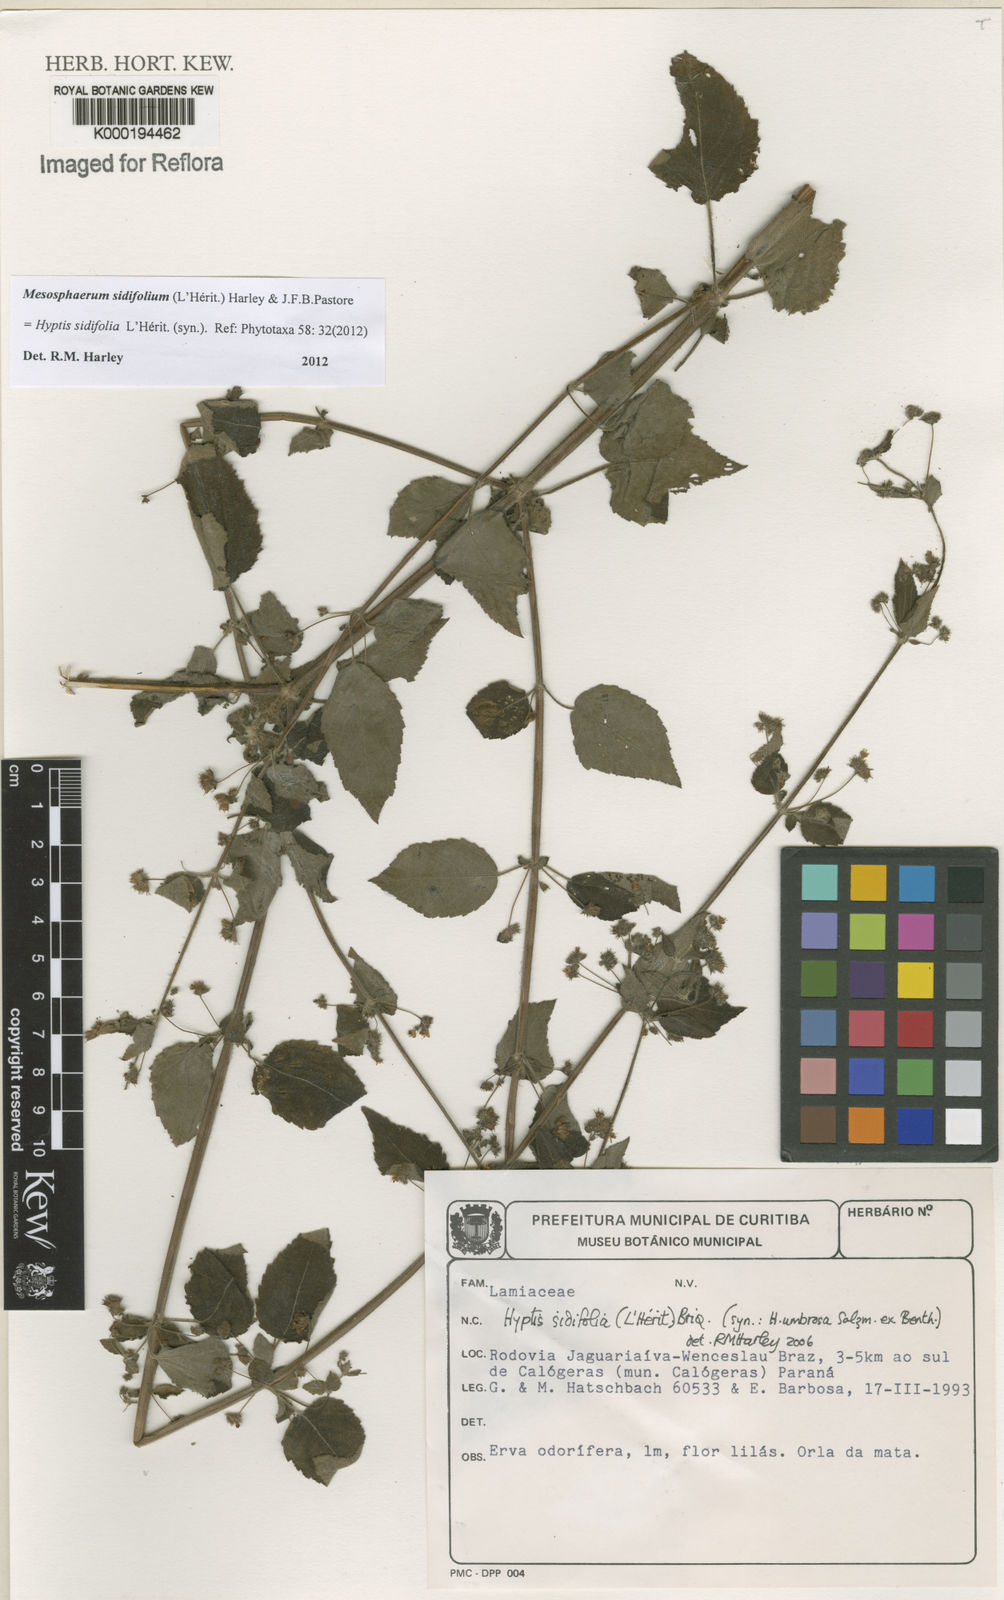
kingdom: Plantae
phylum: Tracheophyta
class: Magnoliopsida
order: Lamiales
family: Lamiaceae
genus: Mesosphaerum
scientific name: Mesosphaerum sidifolium
